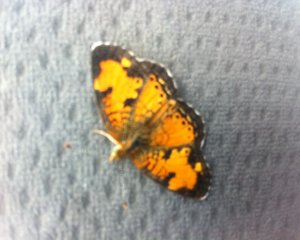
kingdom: Animalia
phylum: Arthropoda
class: Insecta
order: Lepidoptera
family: Nymphalidae
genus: Phyciodes
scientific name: Phyciodes tharos
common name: Northern Crescent
